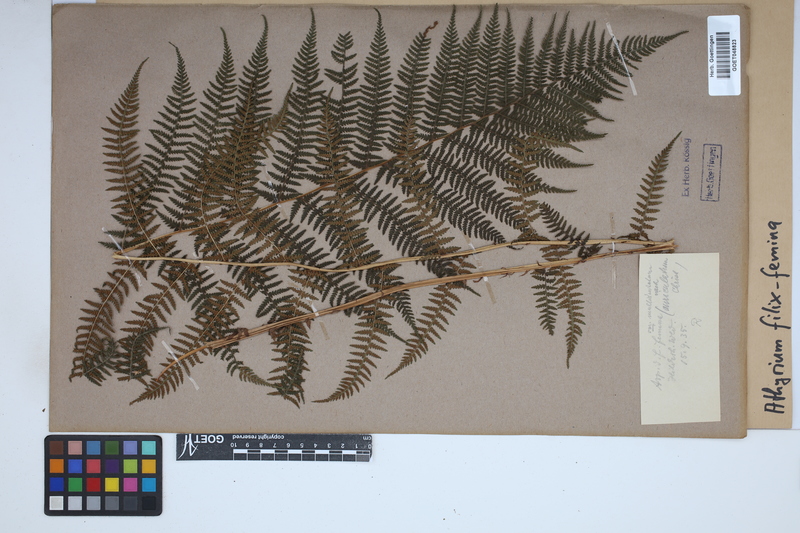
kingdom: Plantae
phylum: Tracheophyta
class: Polypodiopsida
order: Polypodiales
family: Athyriaceae
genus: Athyrium
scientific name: Athyrium filix-femina
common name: Lady fern
